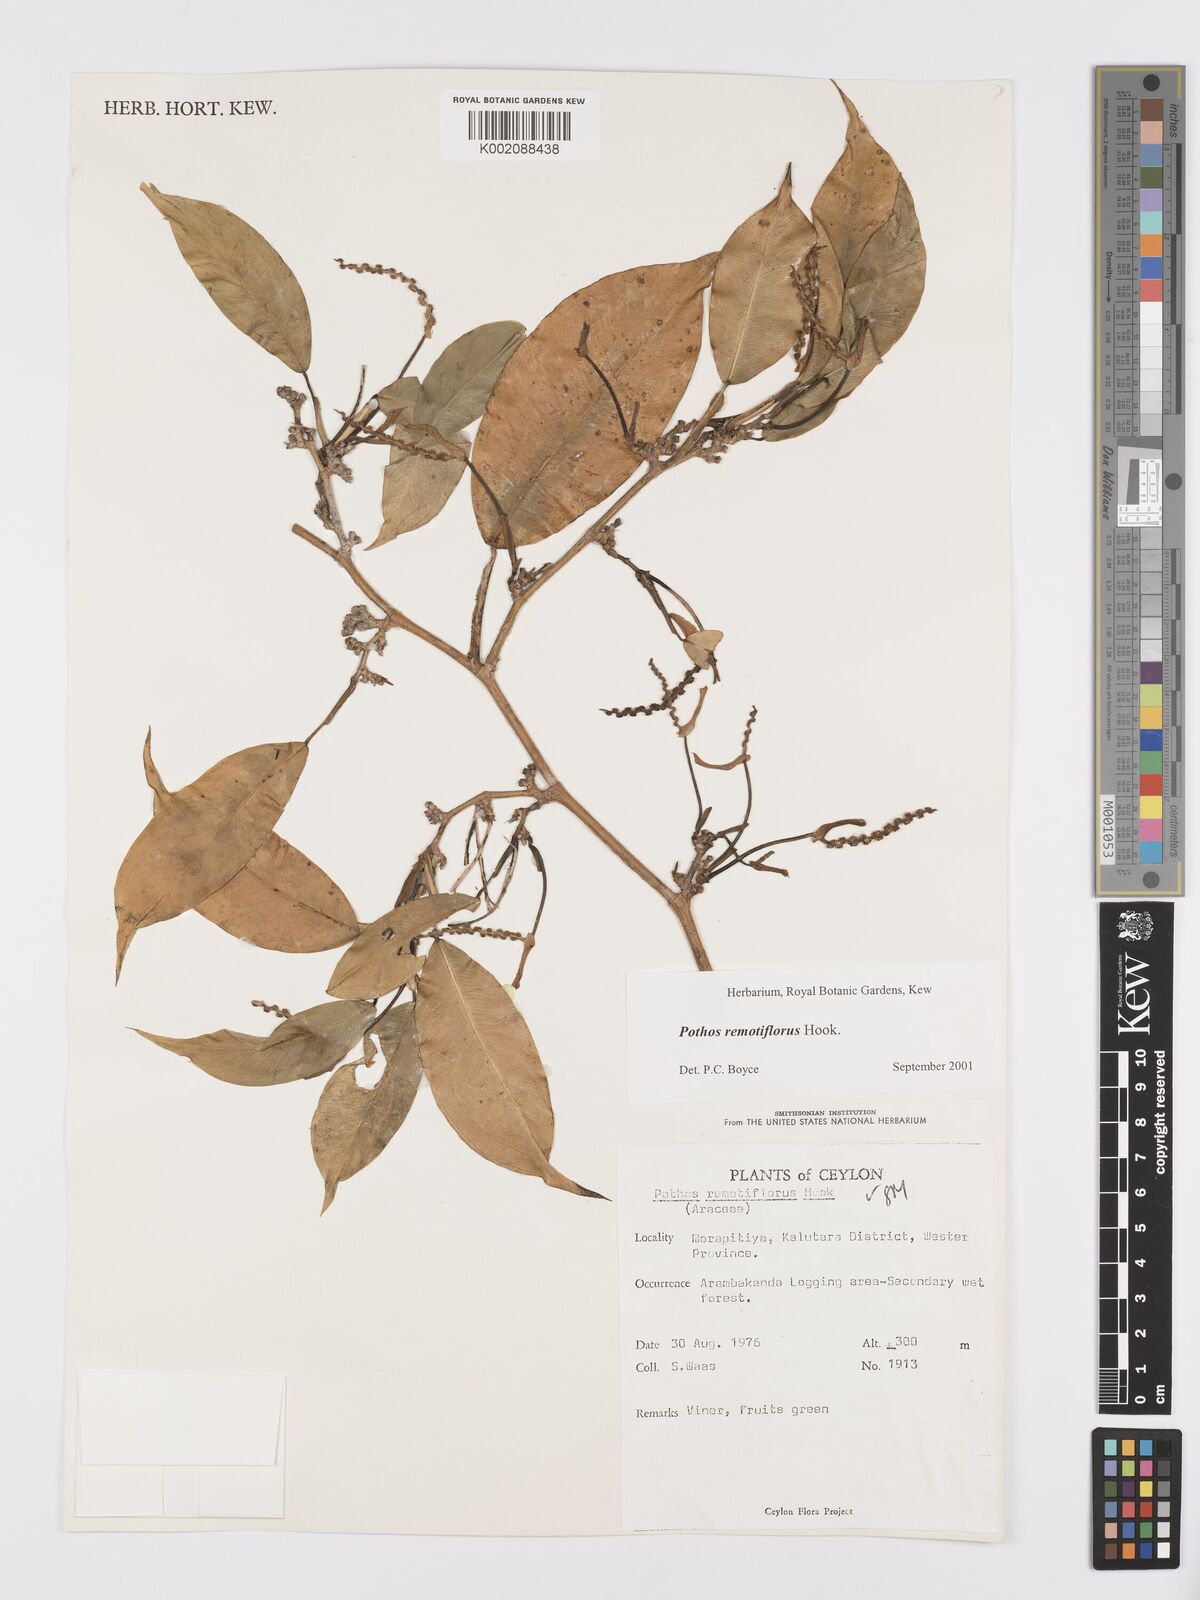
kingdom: Plantae
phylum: Tracheophyta
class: Liliopsida
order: Alismatales
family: Araceae
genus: Pothos
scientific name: Pothos remotiflorus
